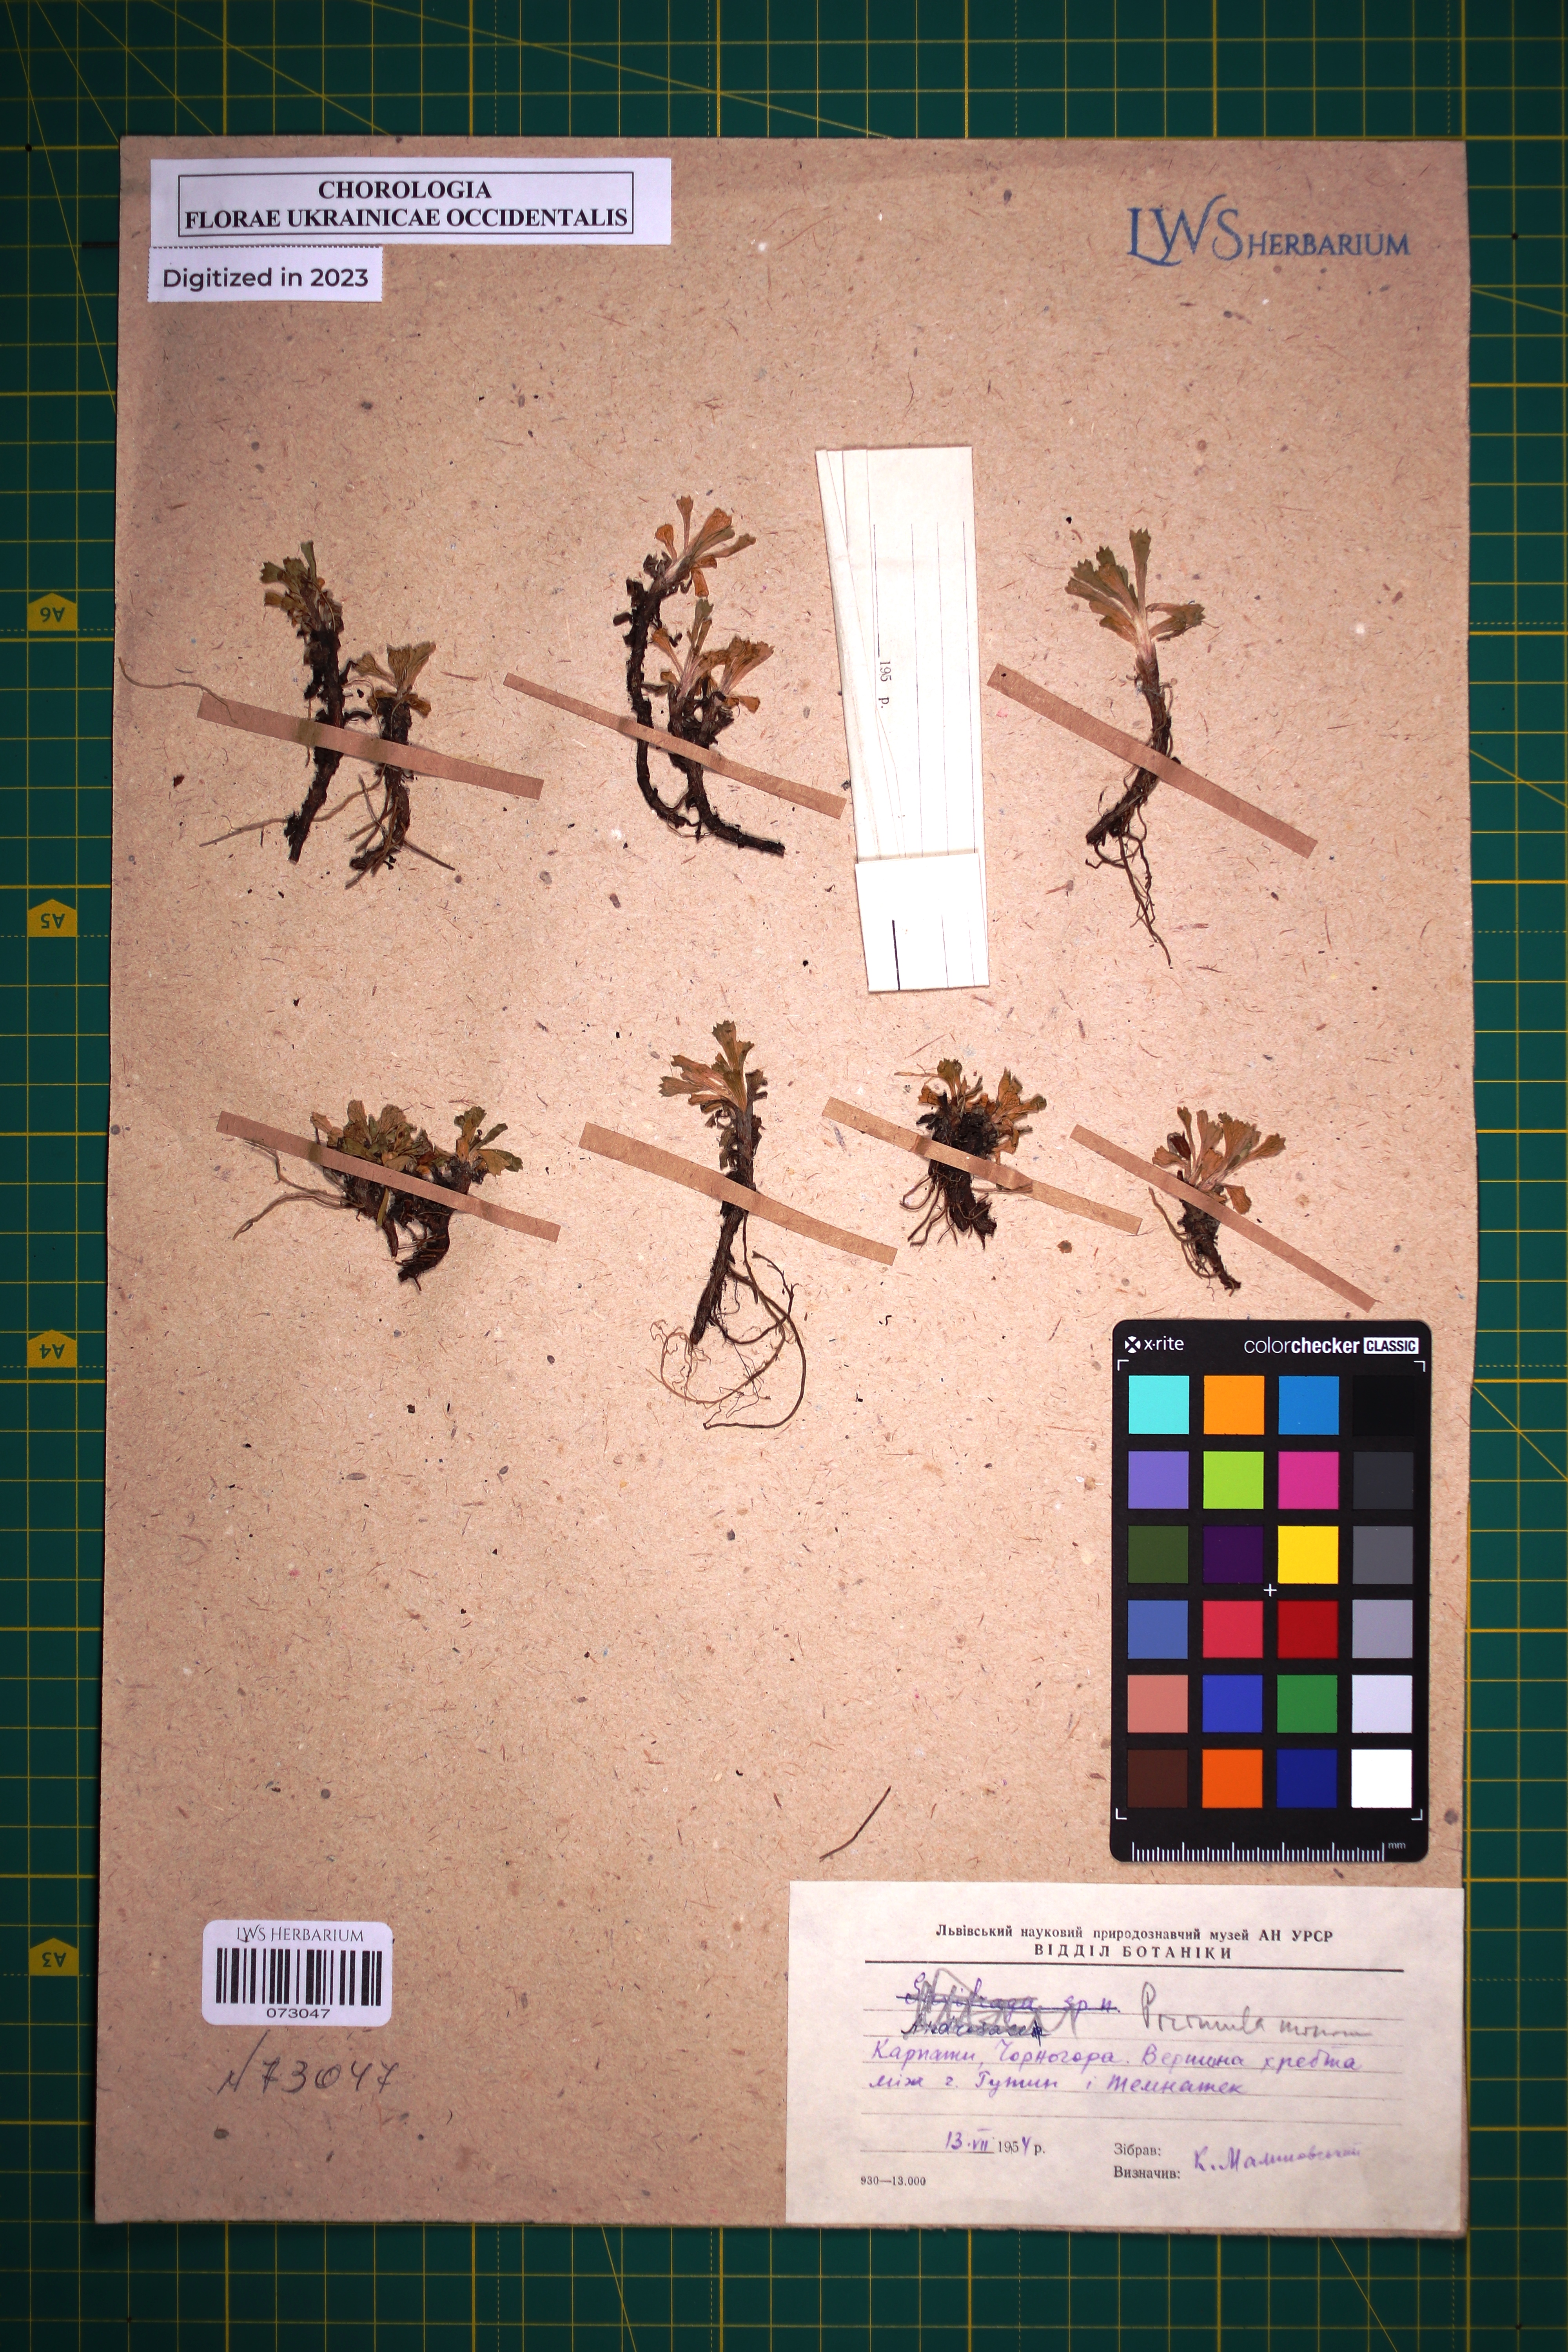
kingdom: Plantae
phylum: Tracheophyta
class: Magnoliopsida
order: Ericales
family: Primulaceae
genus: Primula
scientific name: Primula minima
